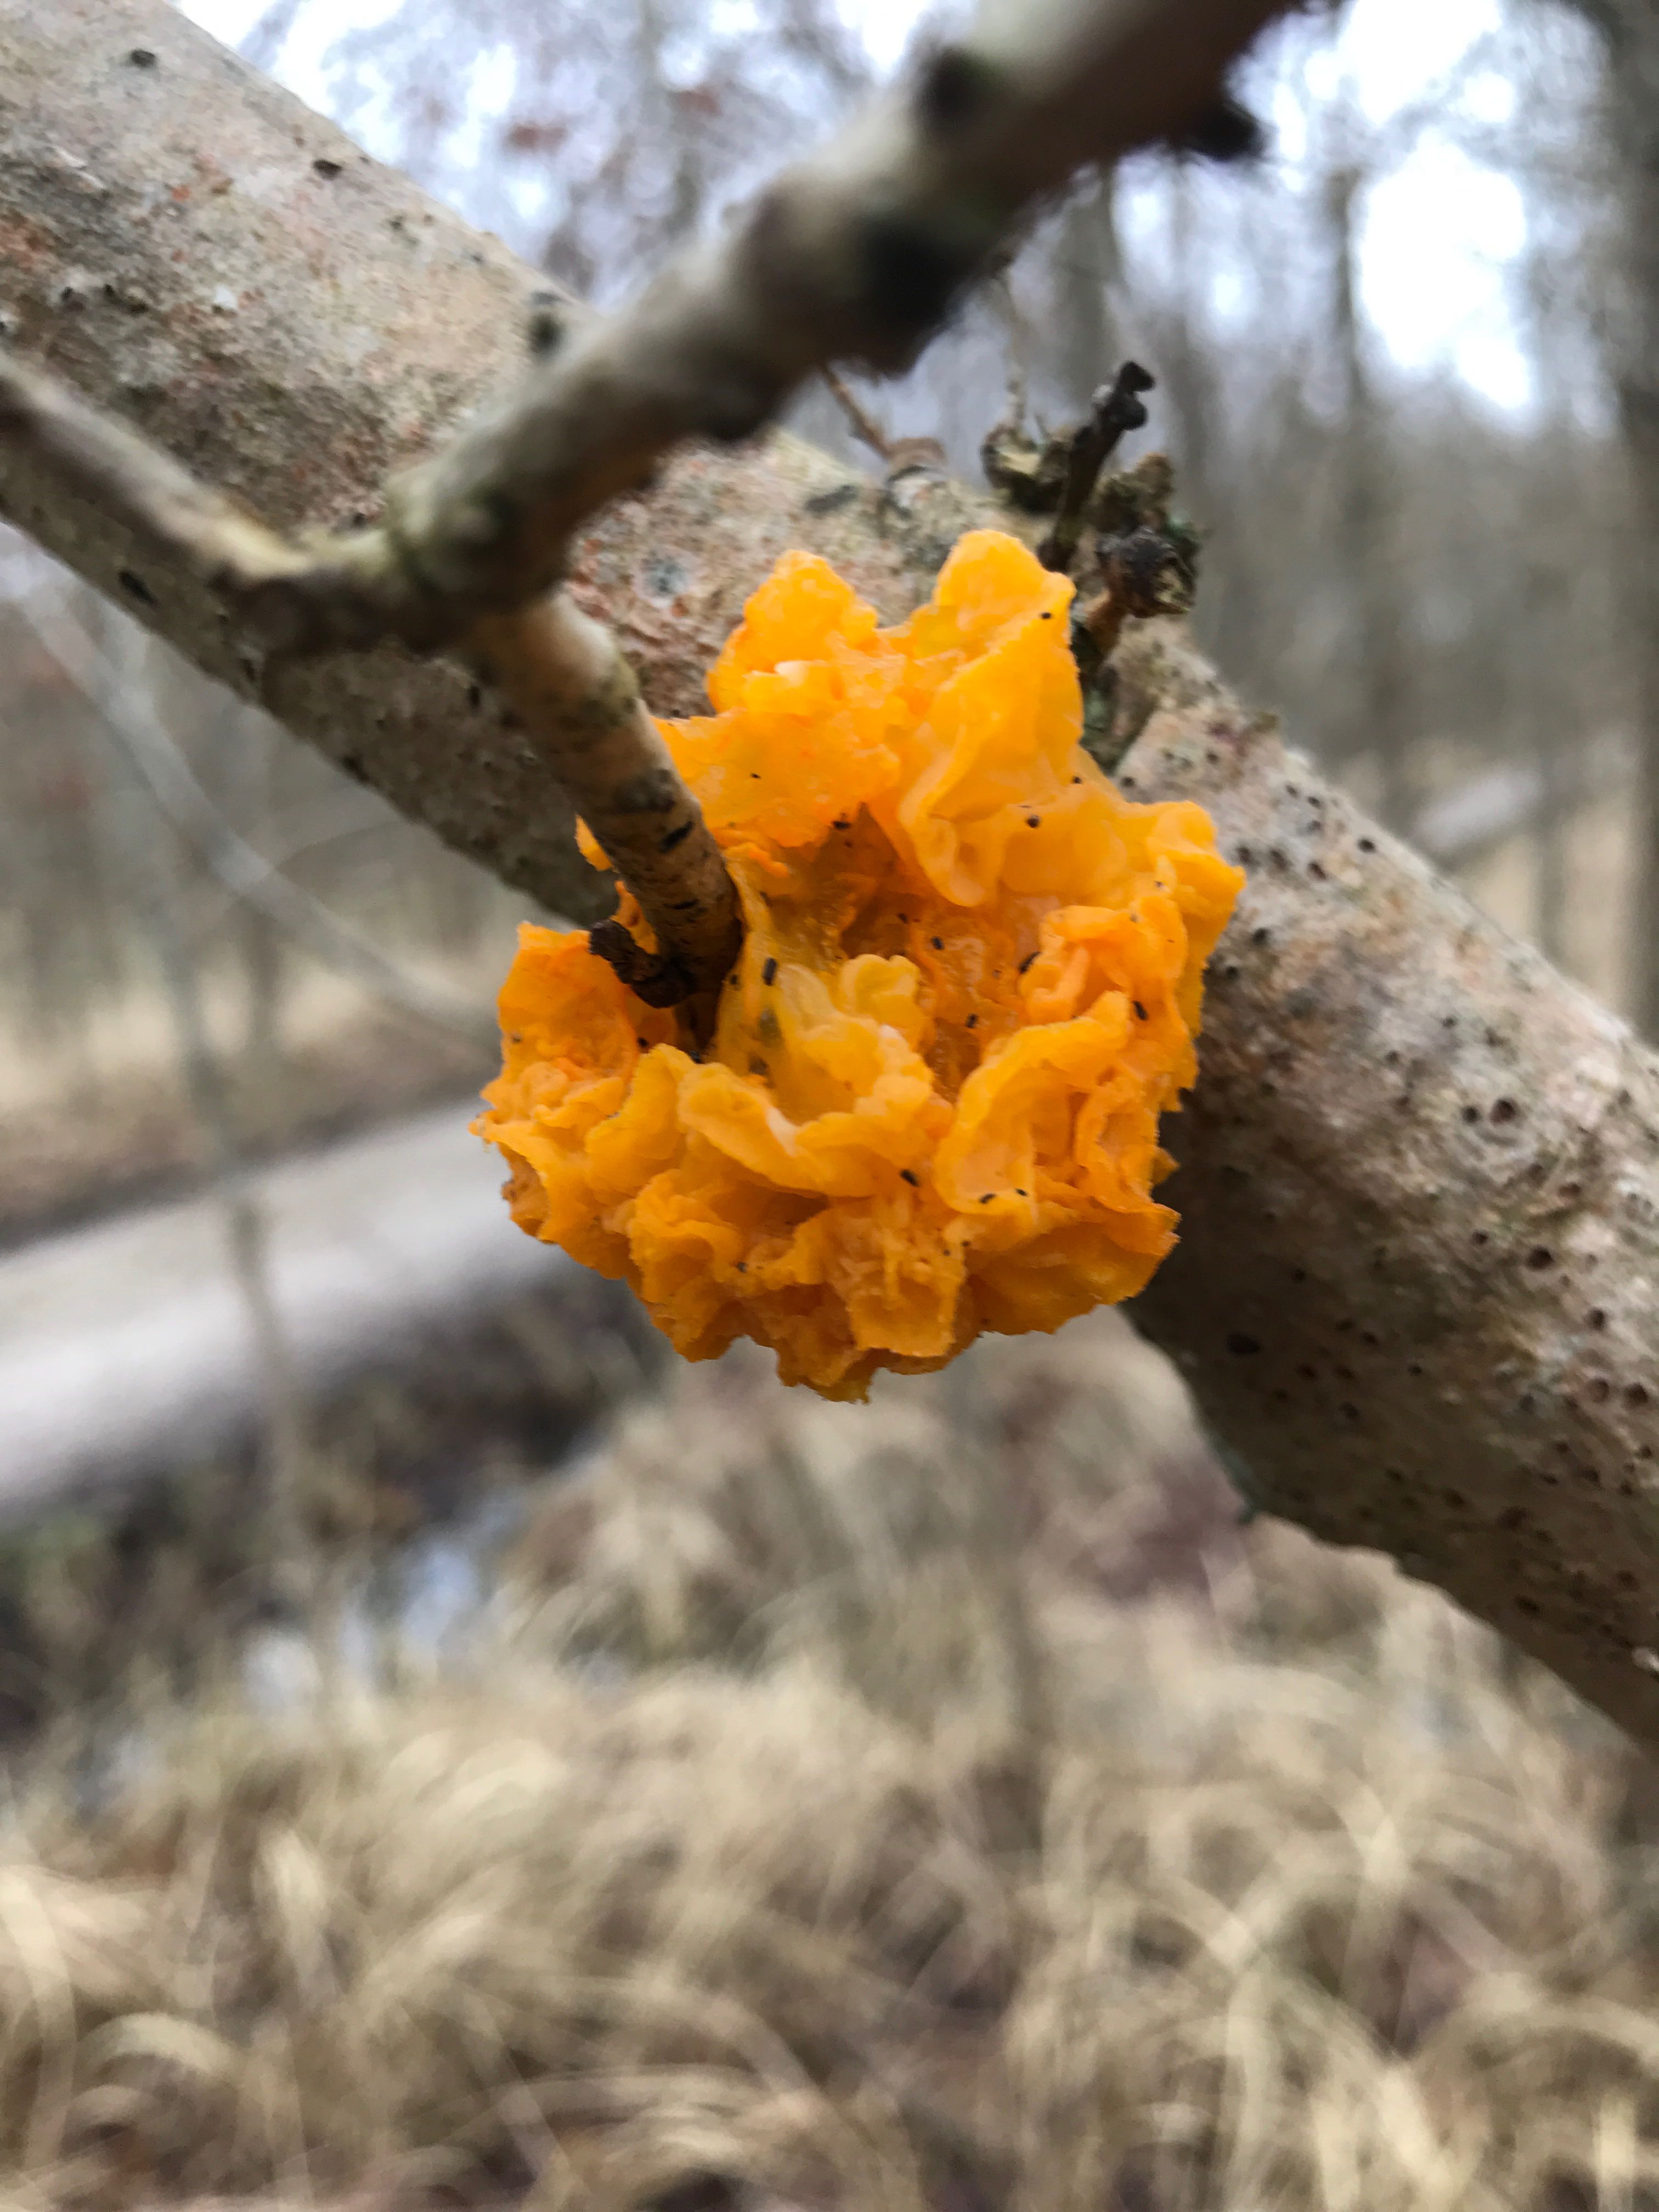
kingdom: Fungi
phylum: Basidiomycota
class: Tremellomycetes
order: Tremellales
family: Tremellaceae
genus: Tremella
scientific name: Tremella mesenterica
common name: gul bævresvamp
